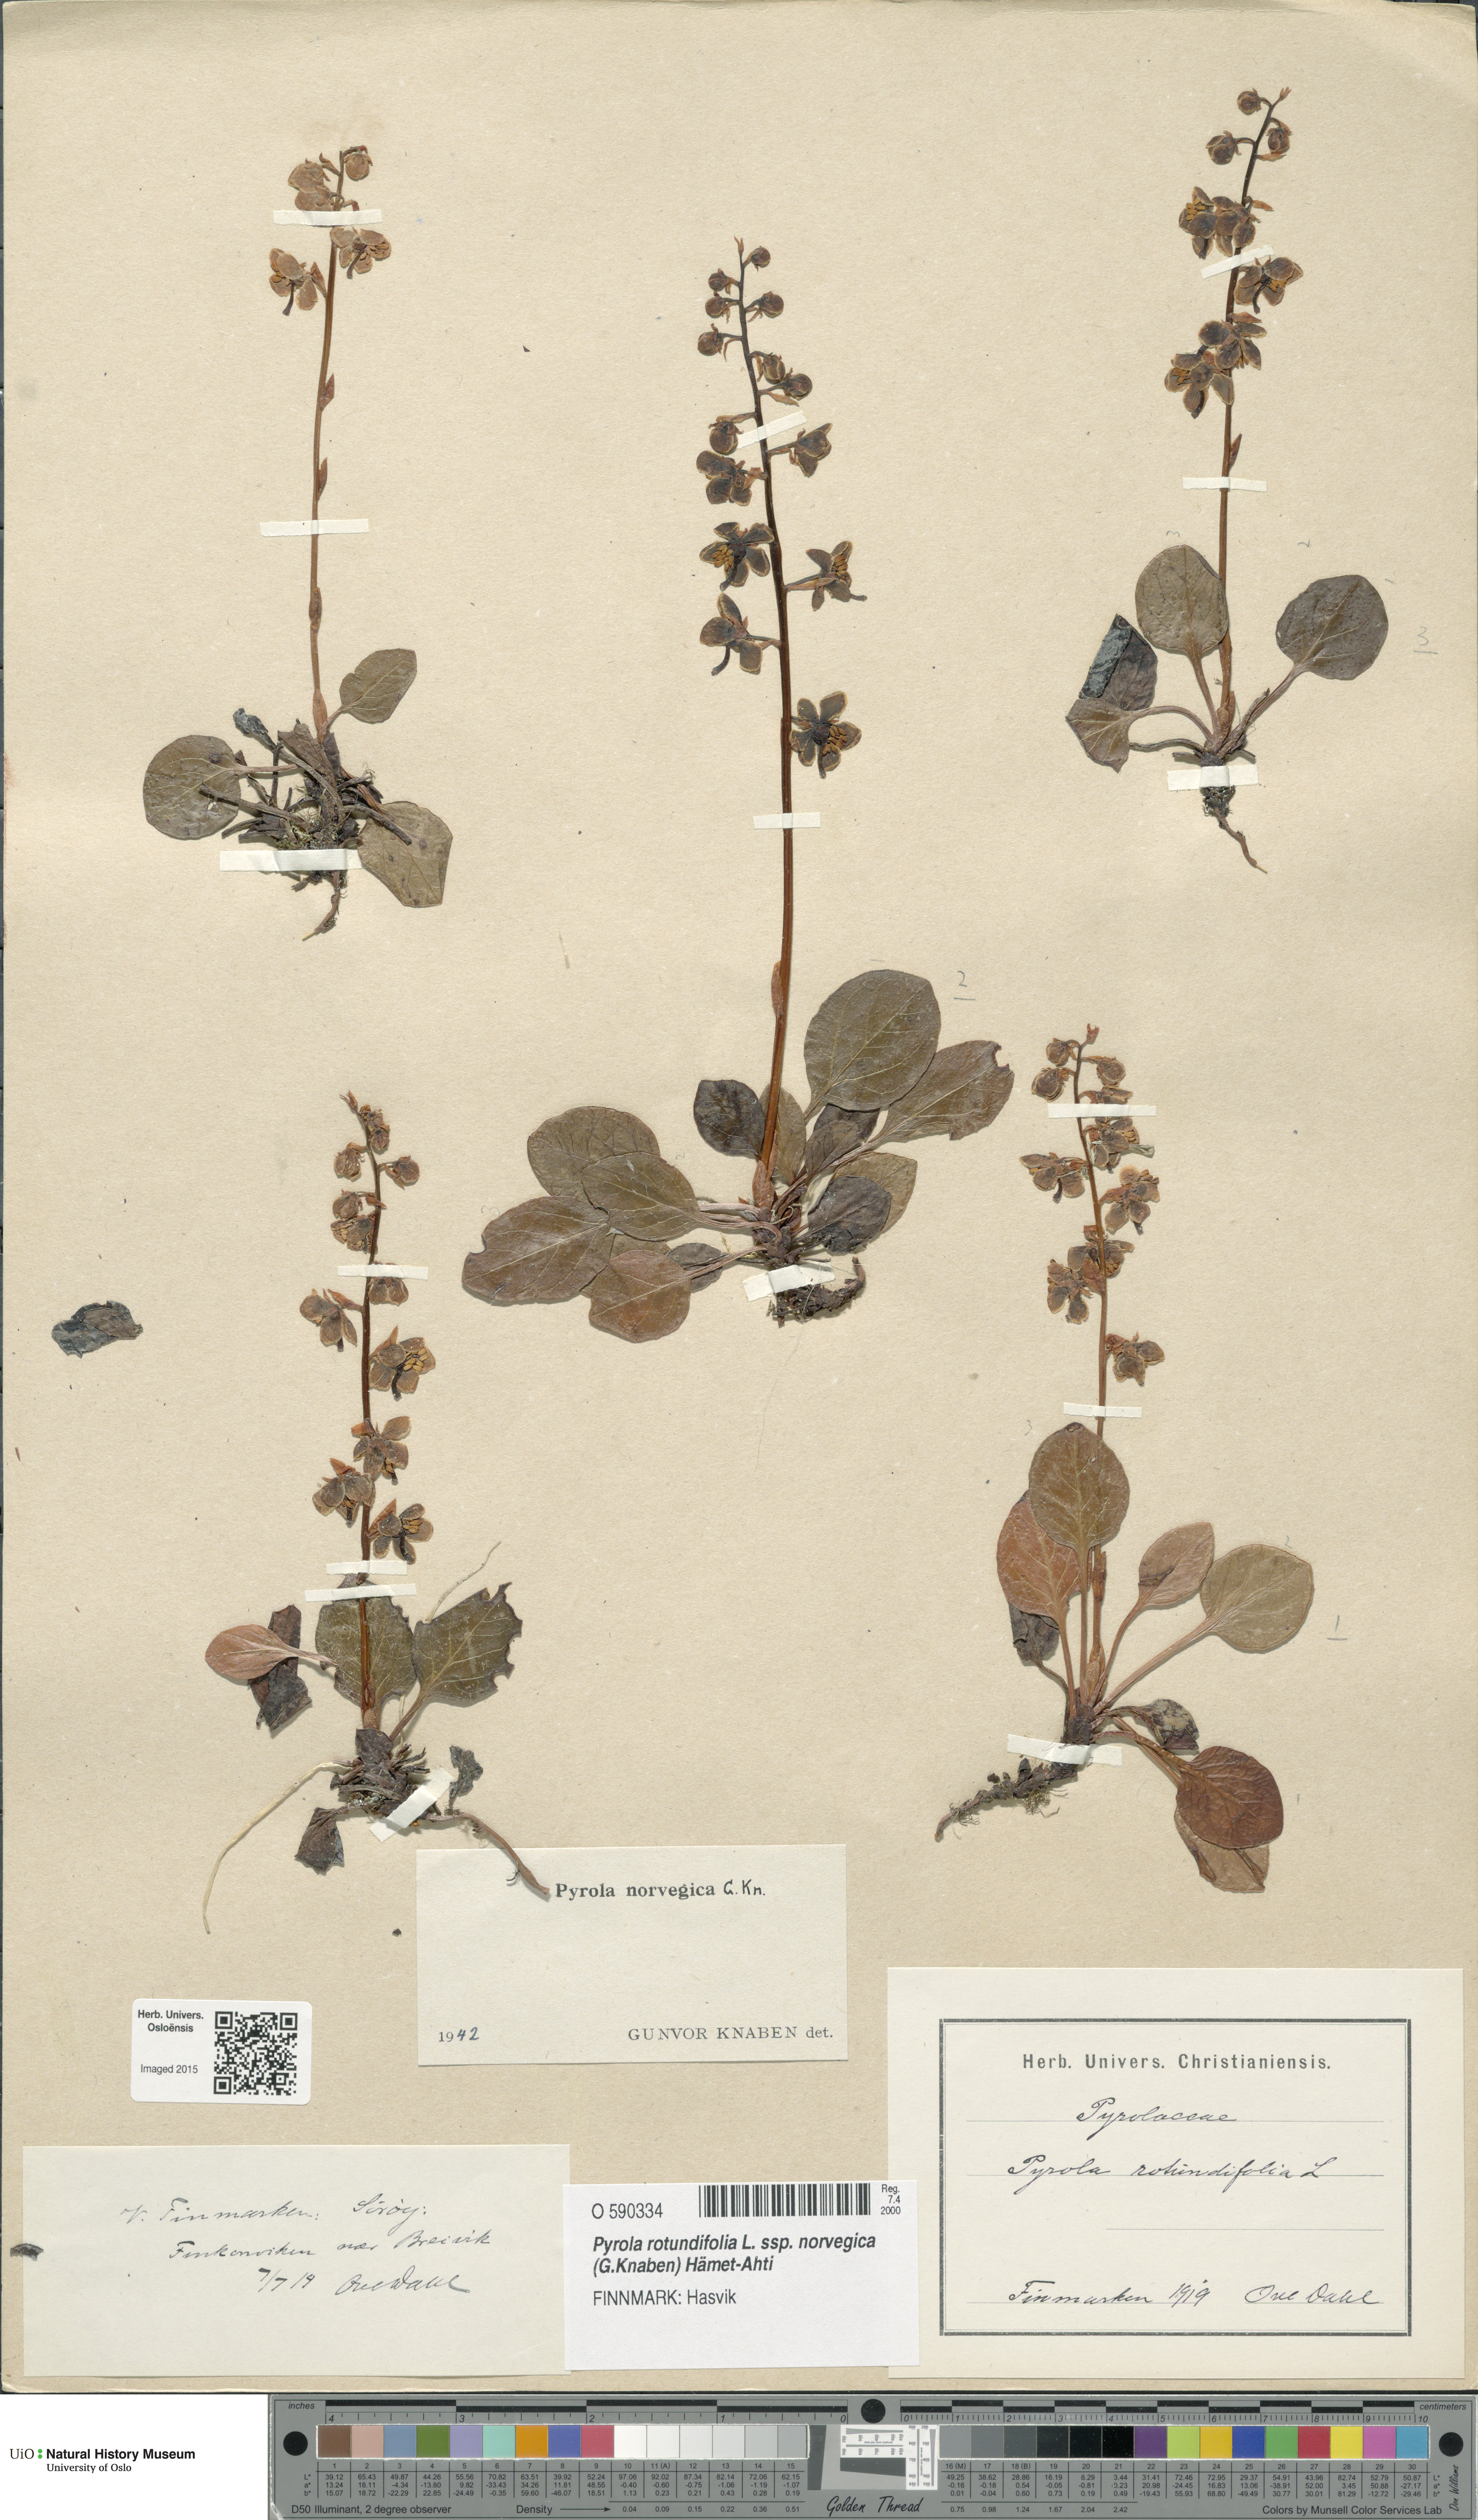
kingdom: Plantae
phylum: Tracheophyta
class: Magnoliopsida
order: Ericales
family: Ericaceae
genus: Pyrola
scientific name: Pyrola rotundifolia
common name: Round-leaved wintergreen
